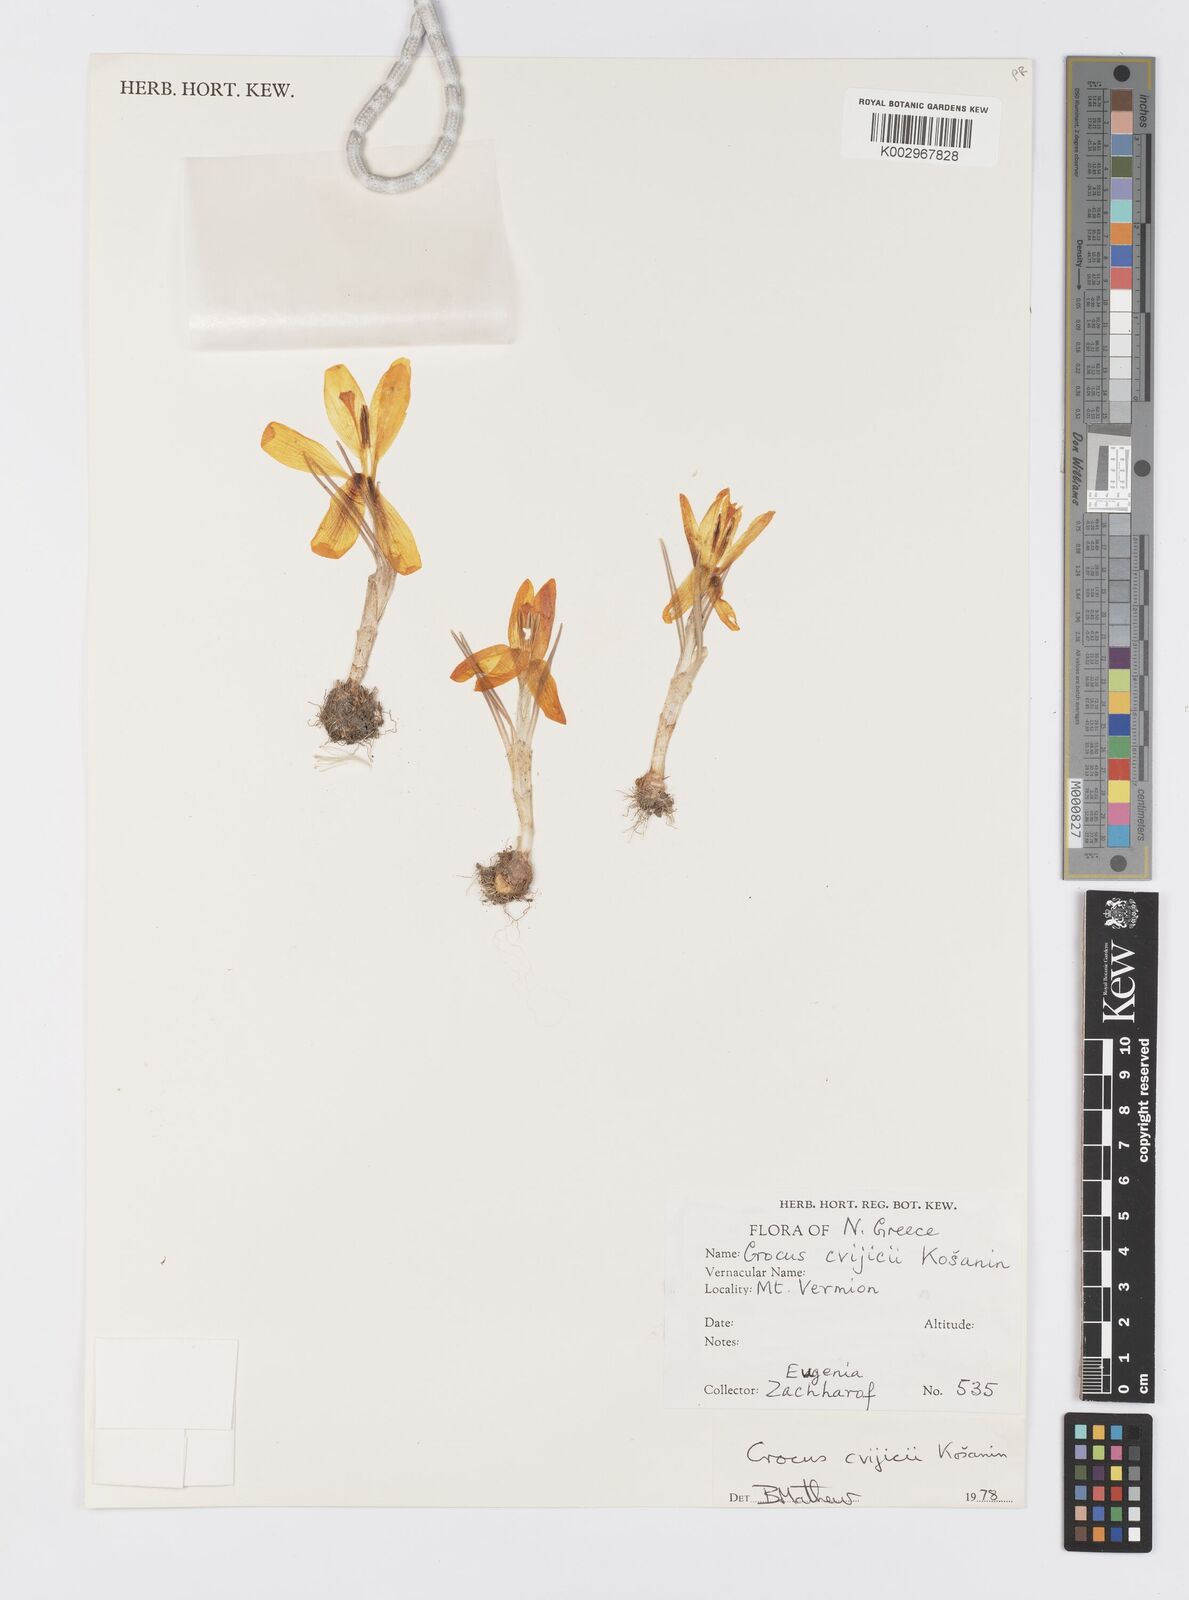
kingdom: Plantae
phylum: Tracheophyta
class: Liliopsida
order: Asparagales
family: Iridaceae
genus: Crocus
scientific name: Crocus cvijicii
